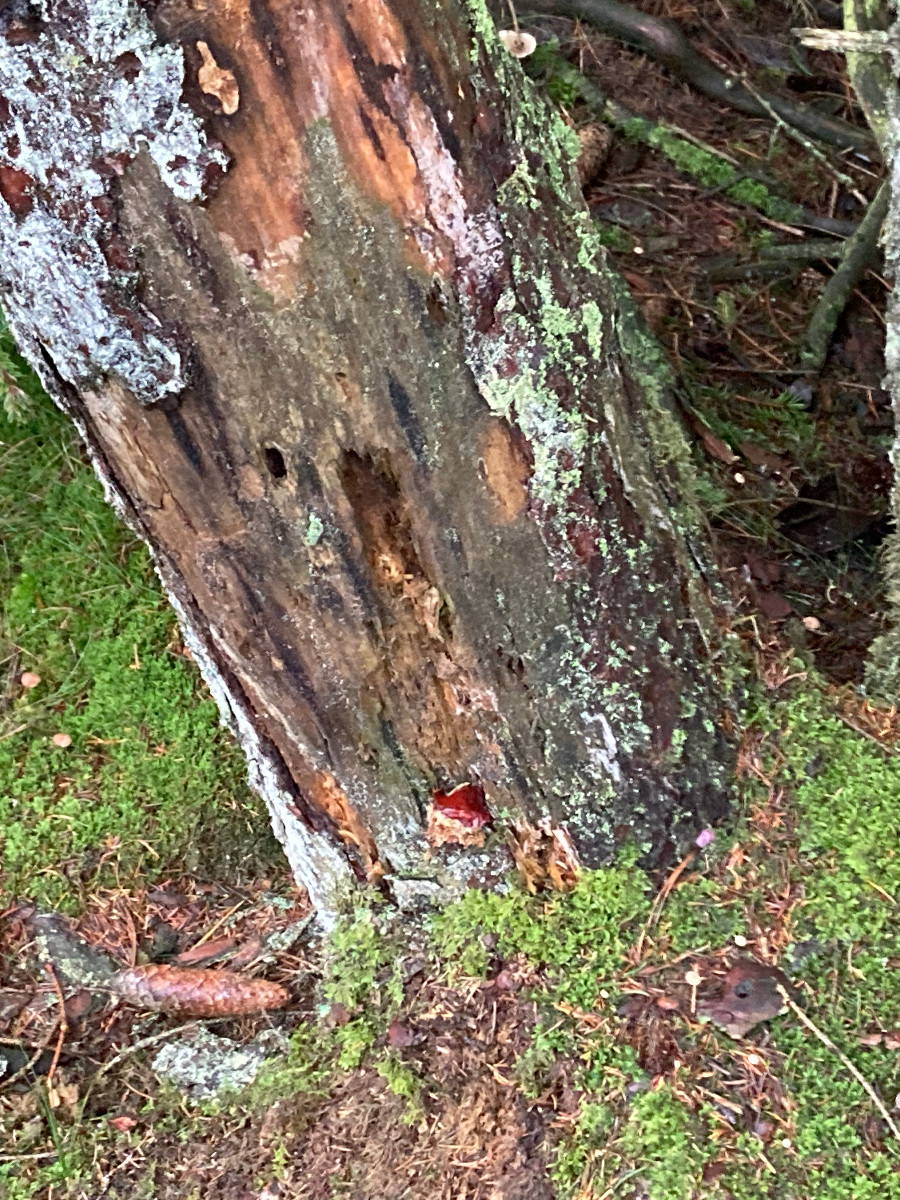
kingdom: Fungi
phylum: Basidiomycota
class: Agaricomycetes
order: Polyporales
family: Polyporaceae
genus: Ganoderma
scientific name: Ganoderma lucidum
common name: skinnende lakporesvamp
